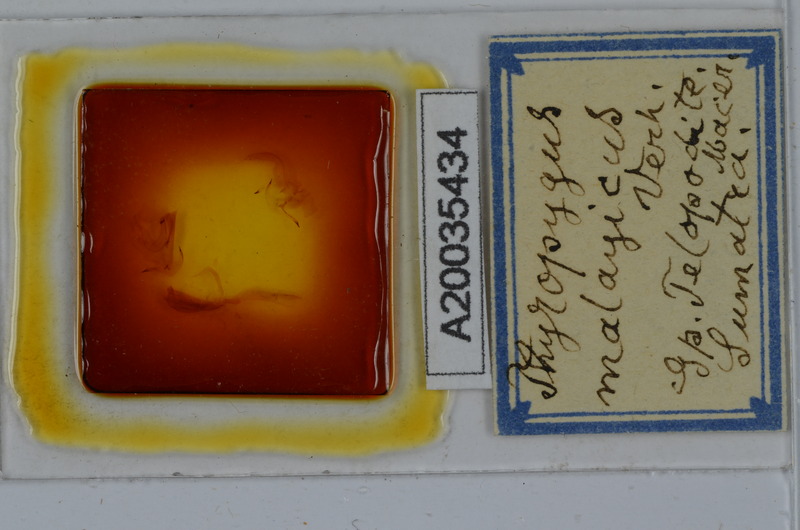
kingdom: Animalia
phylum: Arthropoda
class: Diplopoda
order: Spirostreptida
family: Harpagophoridae
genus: Thyropygus
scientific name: Thyropygus pachyurus
